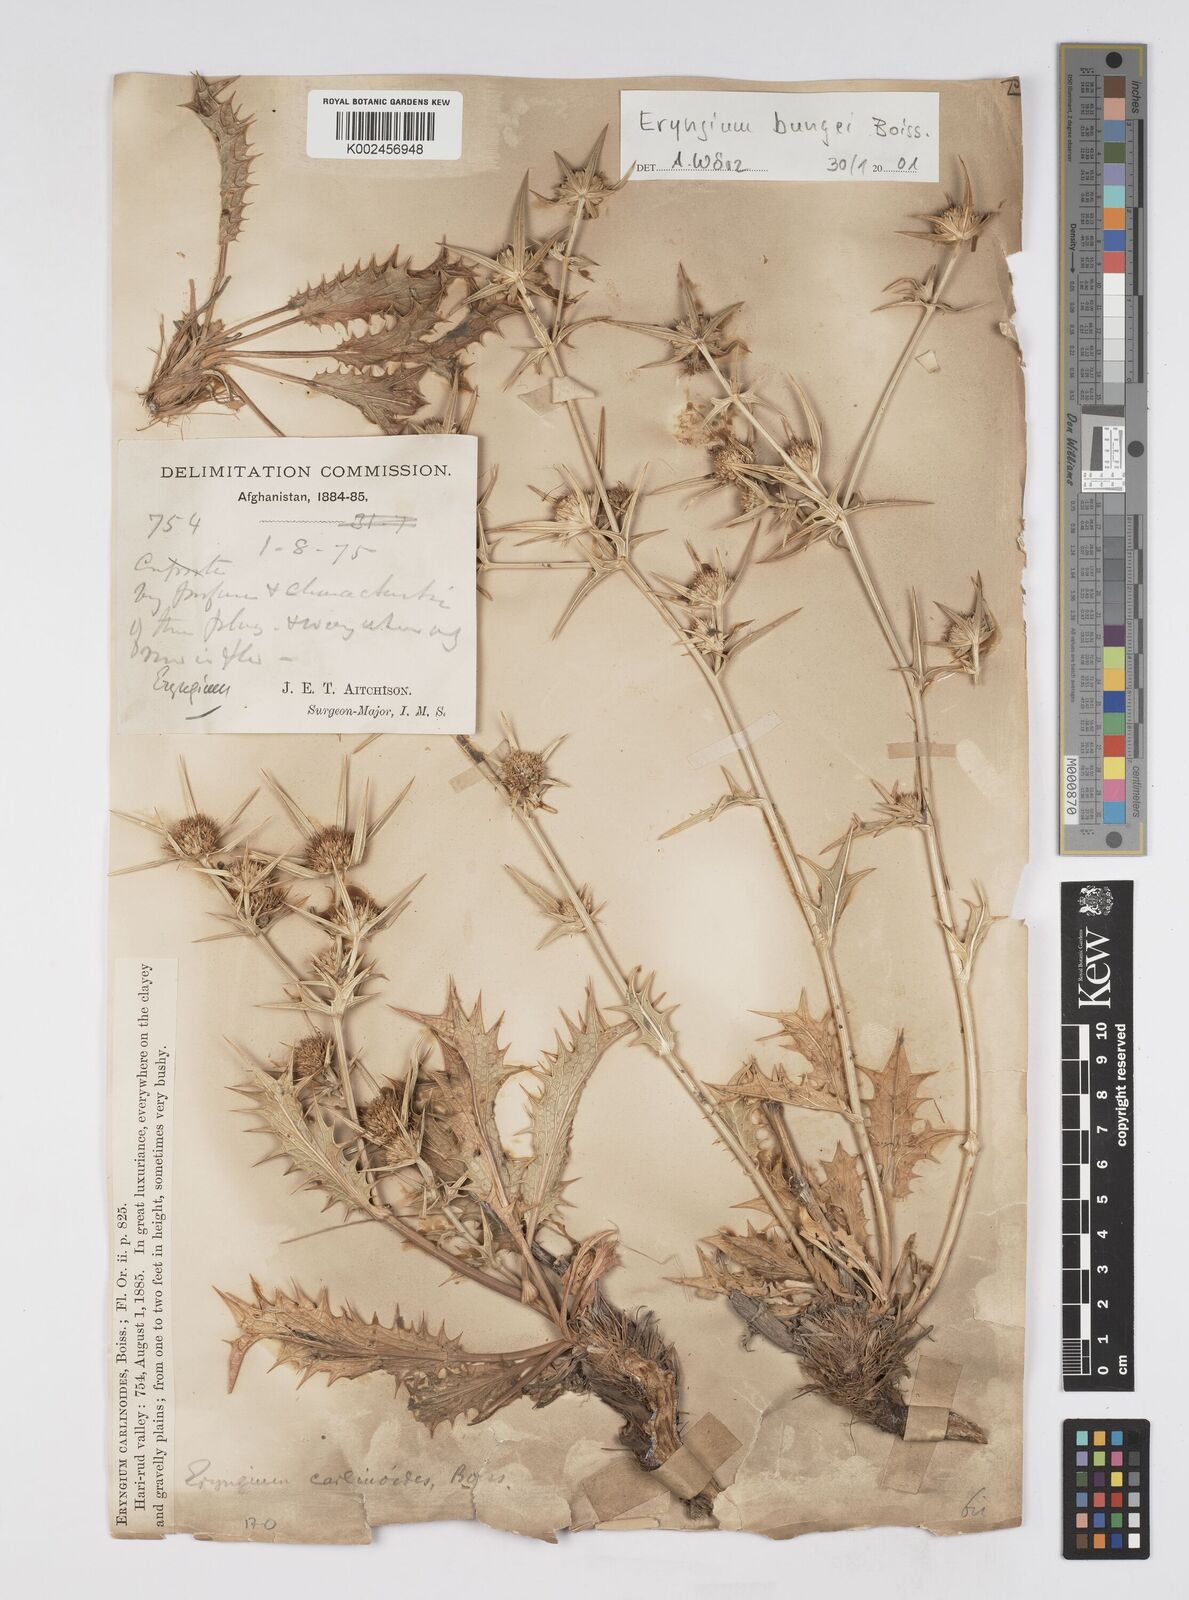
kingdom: Plantae
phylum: Tracheophyta
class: Magnoliopsida
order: Apiales
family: Apiaceae
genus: Eryngium
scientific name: Eryngium bungei
